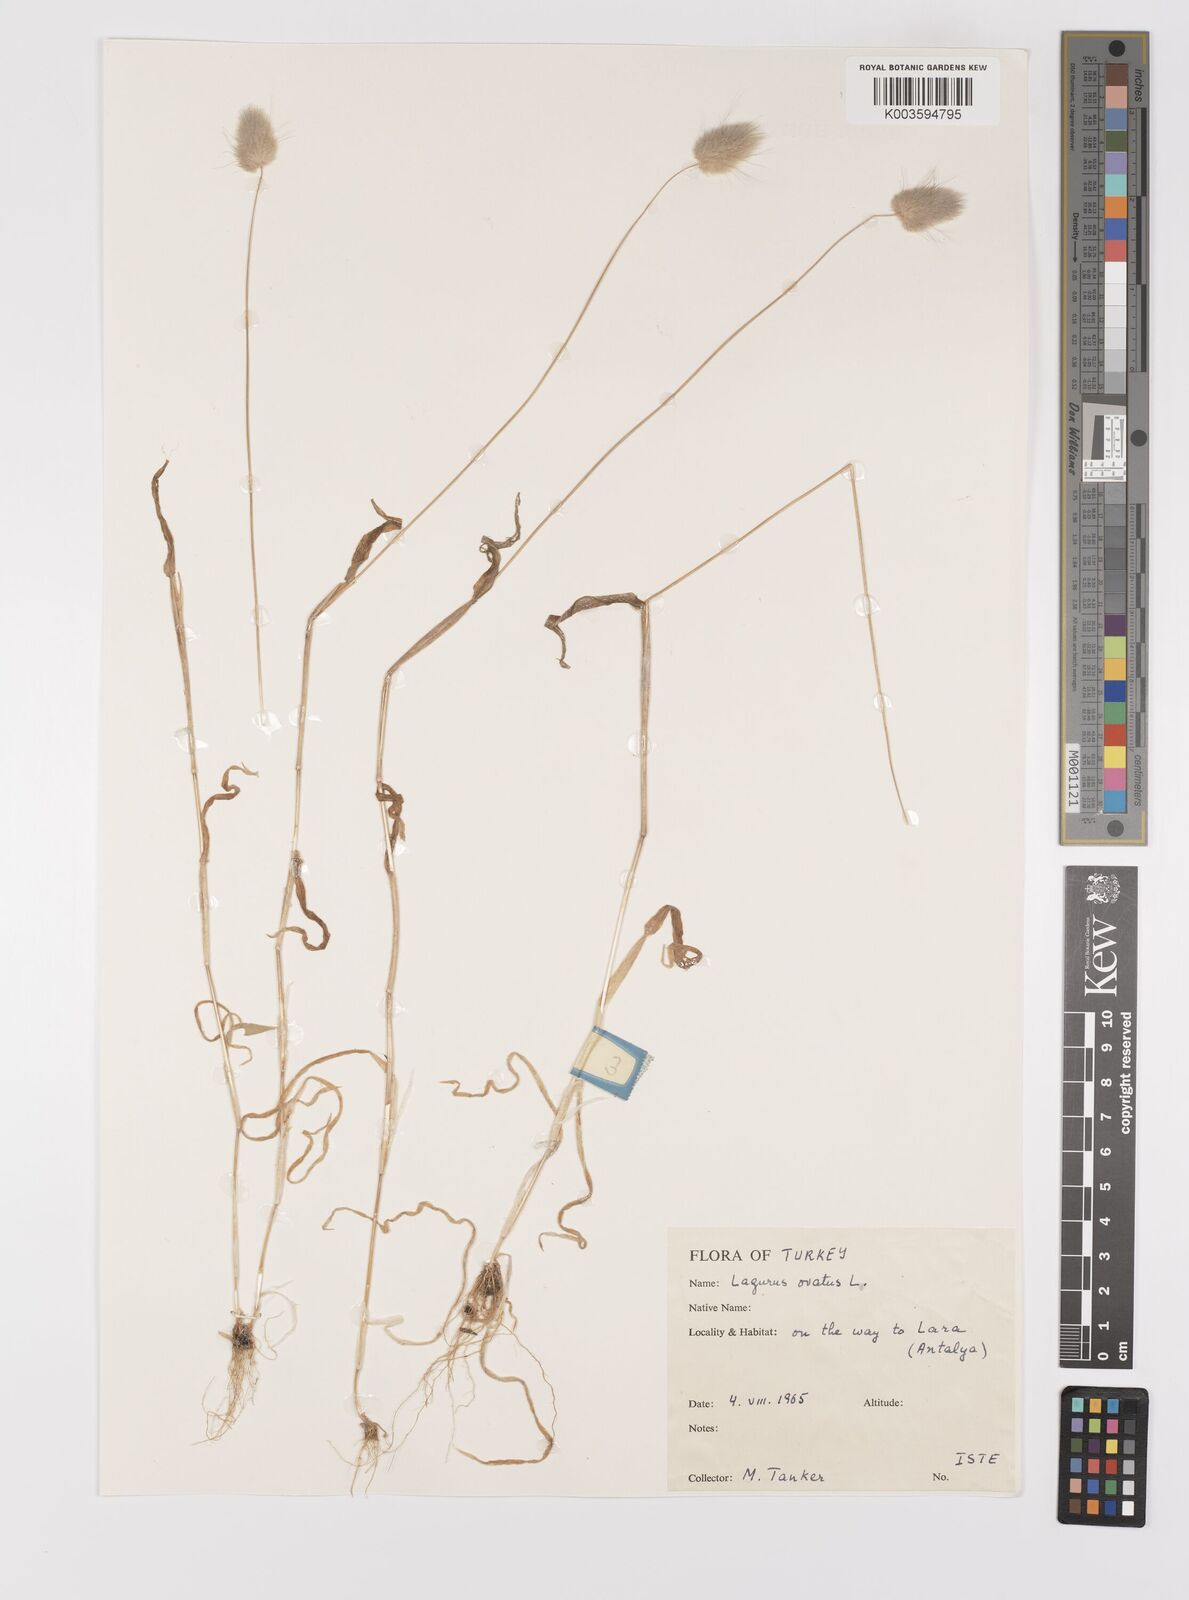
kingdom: Plantae
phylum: Tracheophyta
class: Liliopsida
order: Poales
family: Poaceae
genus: Lagurus
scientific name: Lagurus ovatus
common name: Hare's-tail
